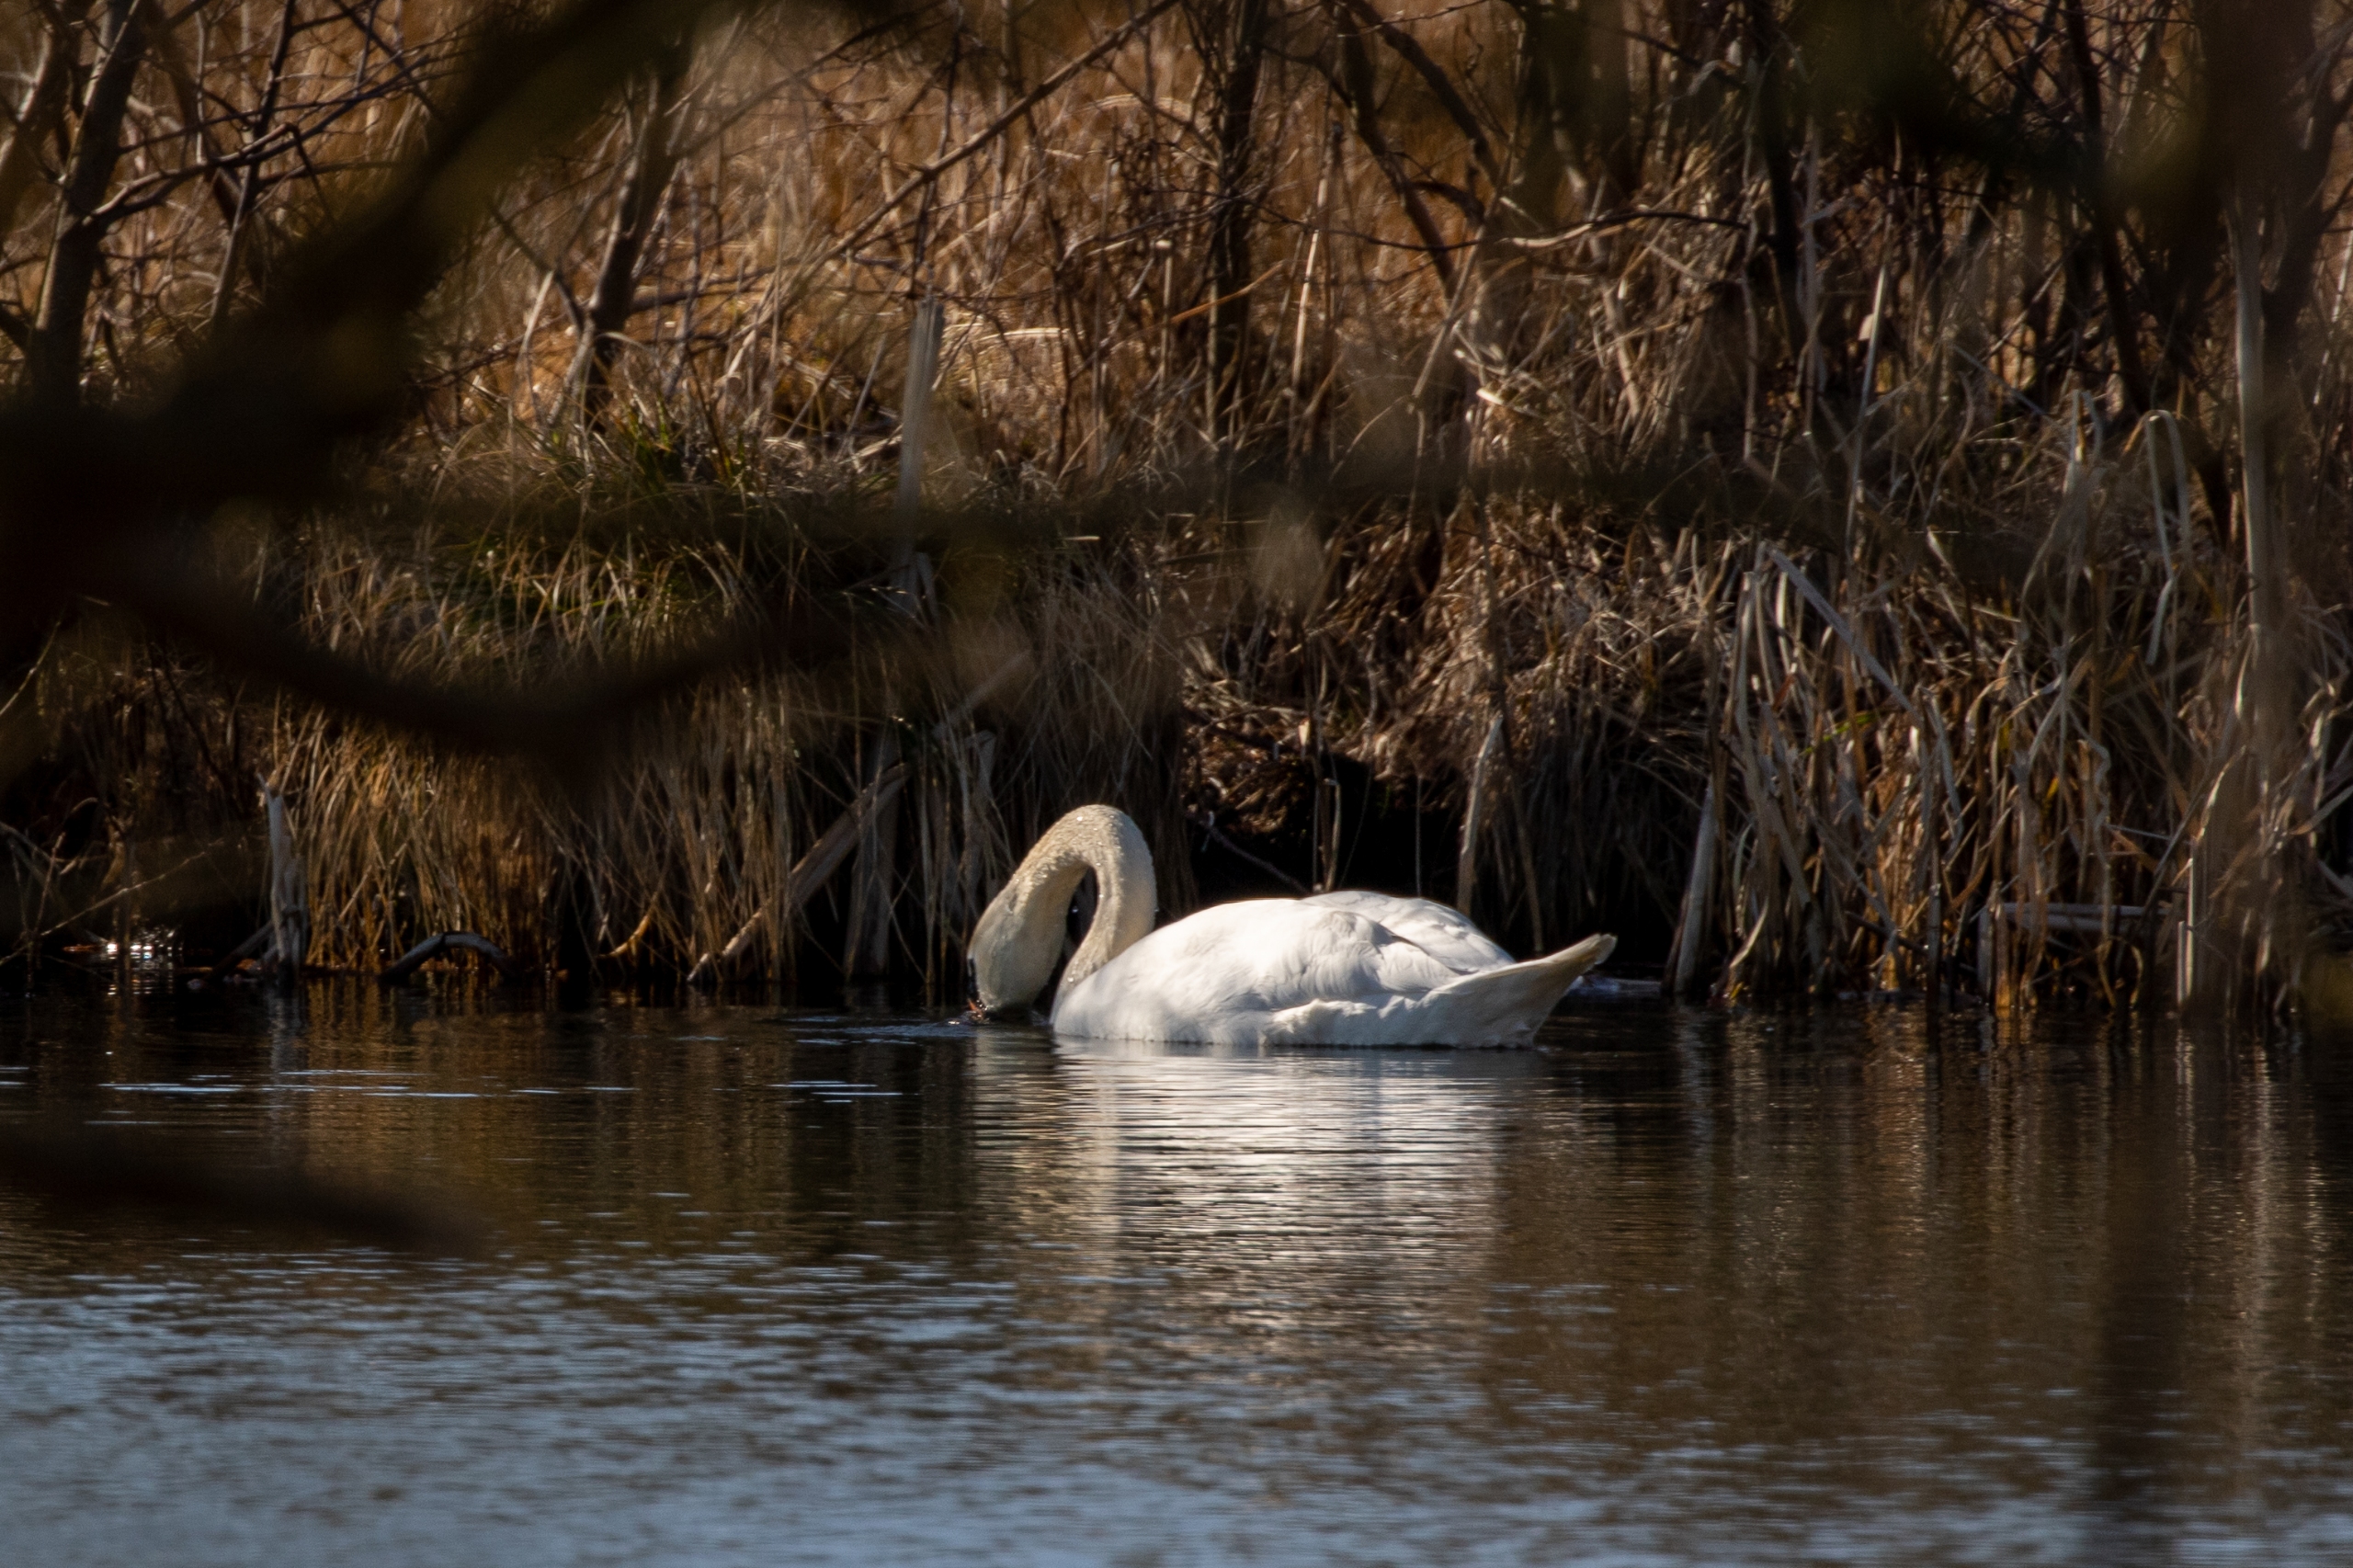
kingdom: Animalia
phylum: Chordata
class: Aves
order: Anseriformes
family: Anatidae
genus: Cygnus
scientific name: Cygnus olor
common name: Knopsvane
